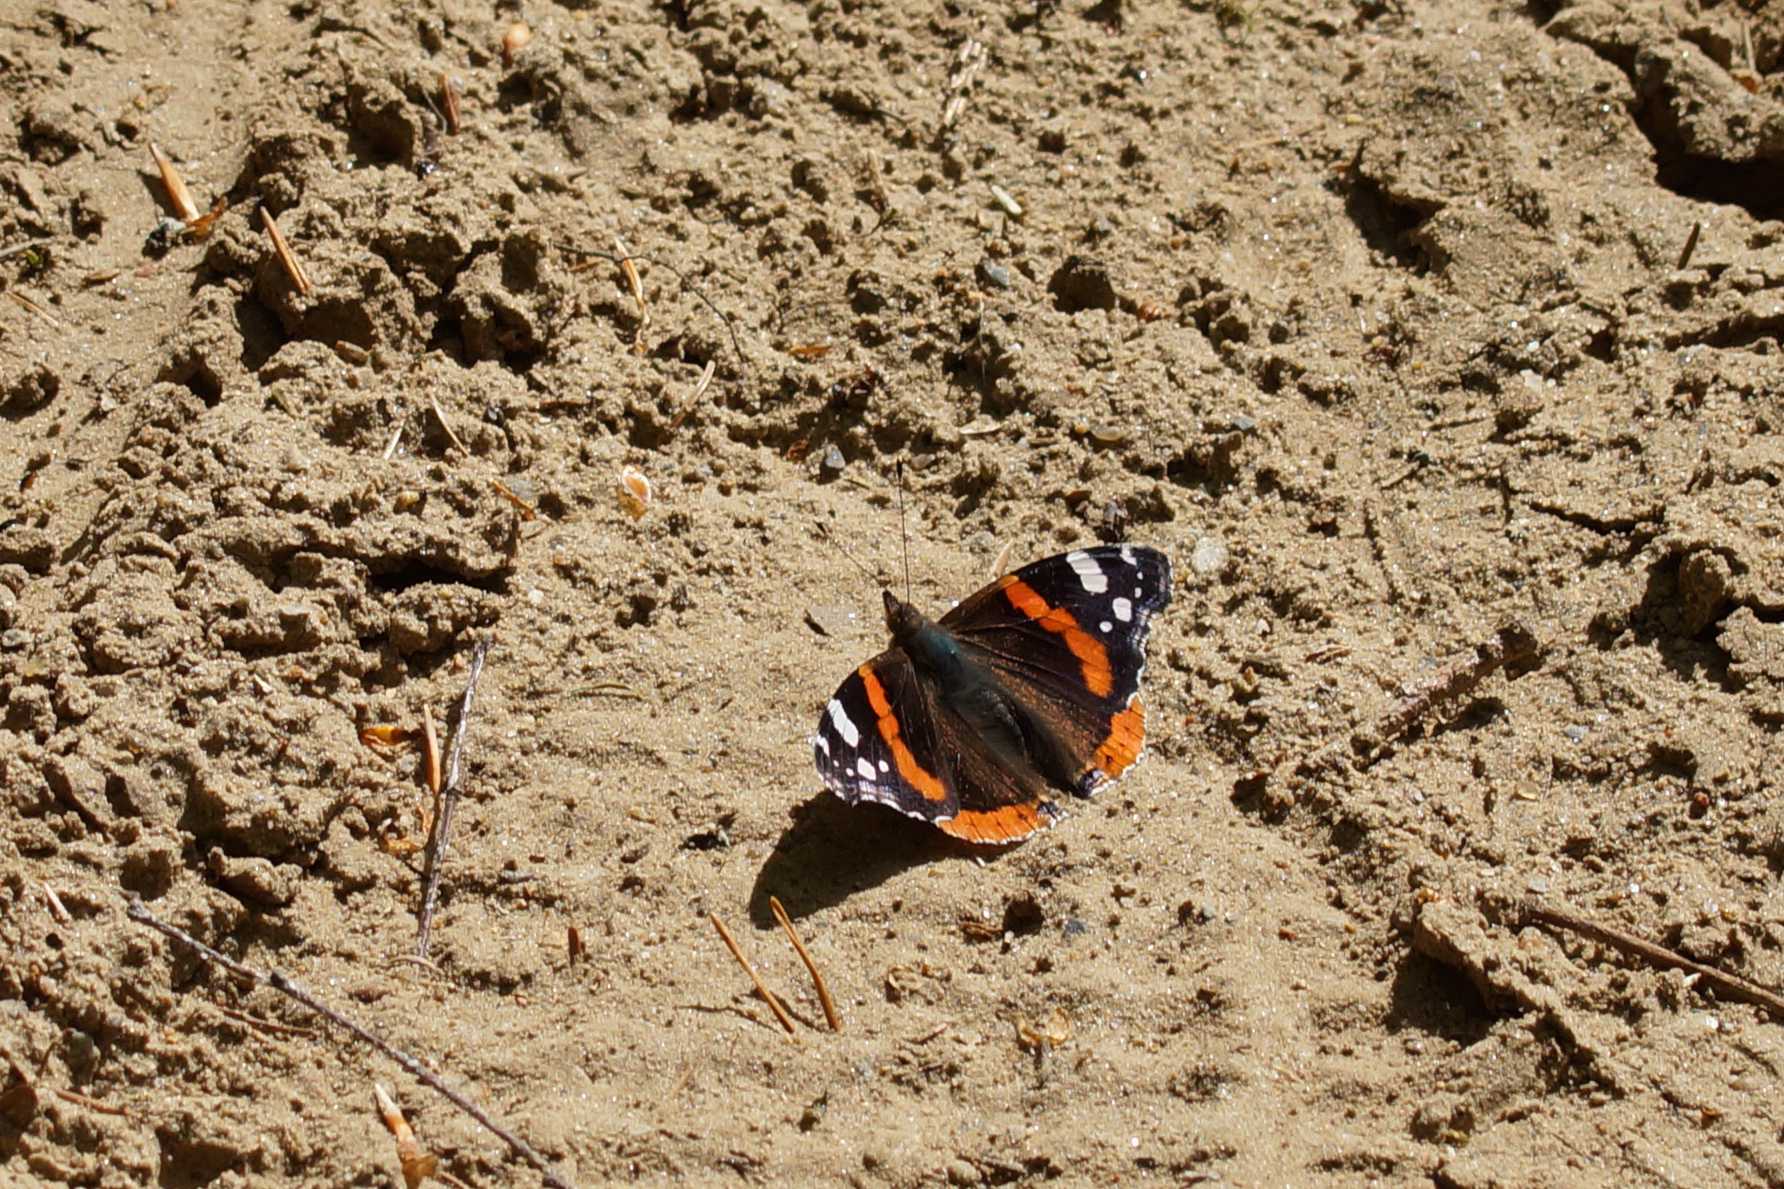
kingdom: Animalia
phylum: Arthropoda
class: Insecta
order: Lepidoptera
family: Nymphalidae
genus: Vanessa
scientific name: Vanessa atalanta
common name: Admiral
